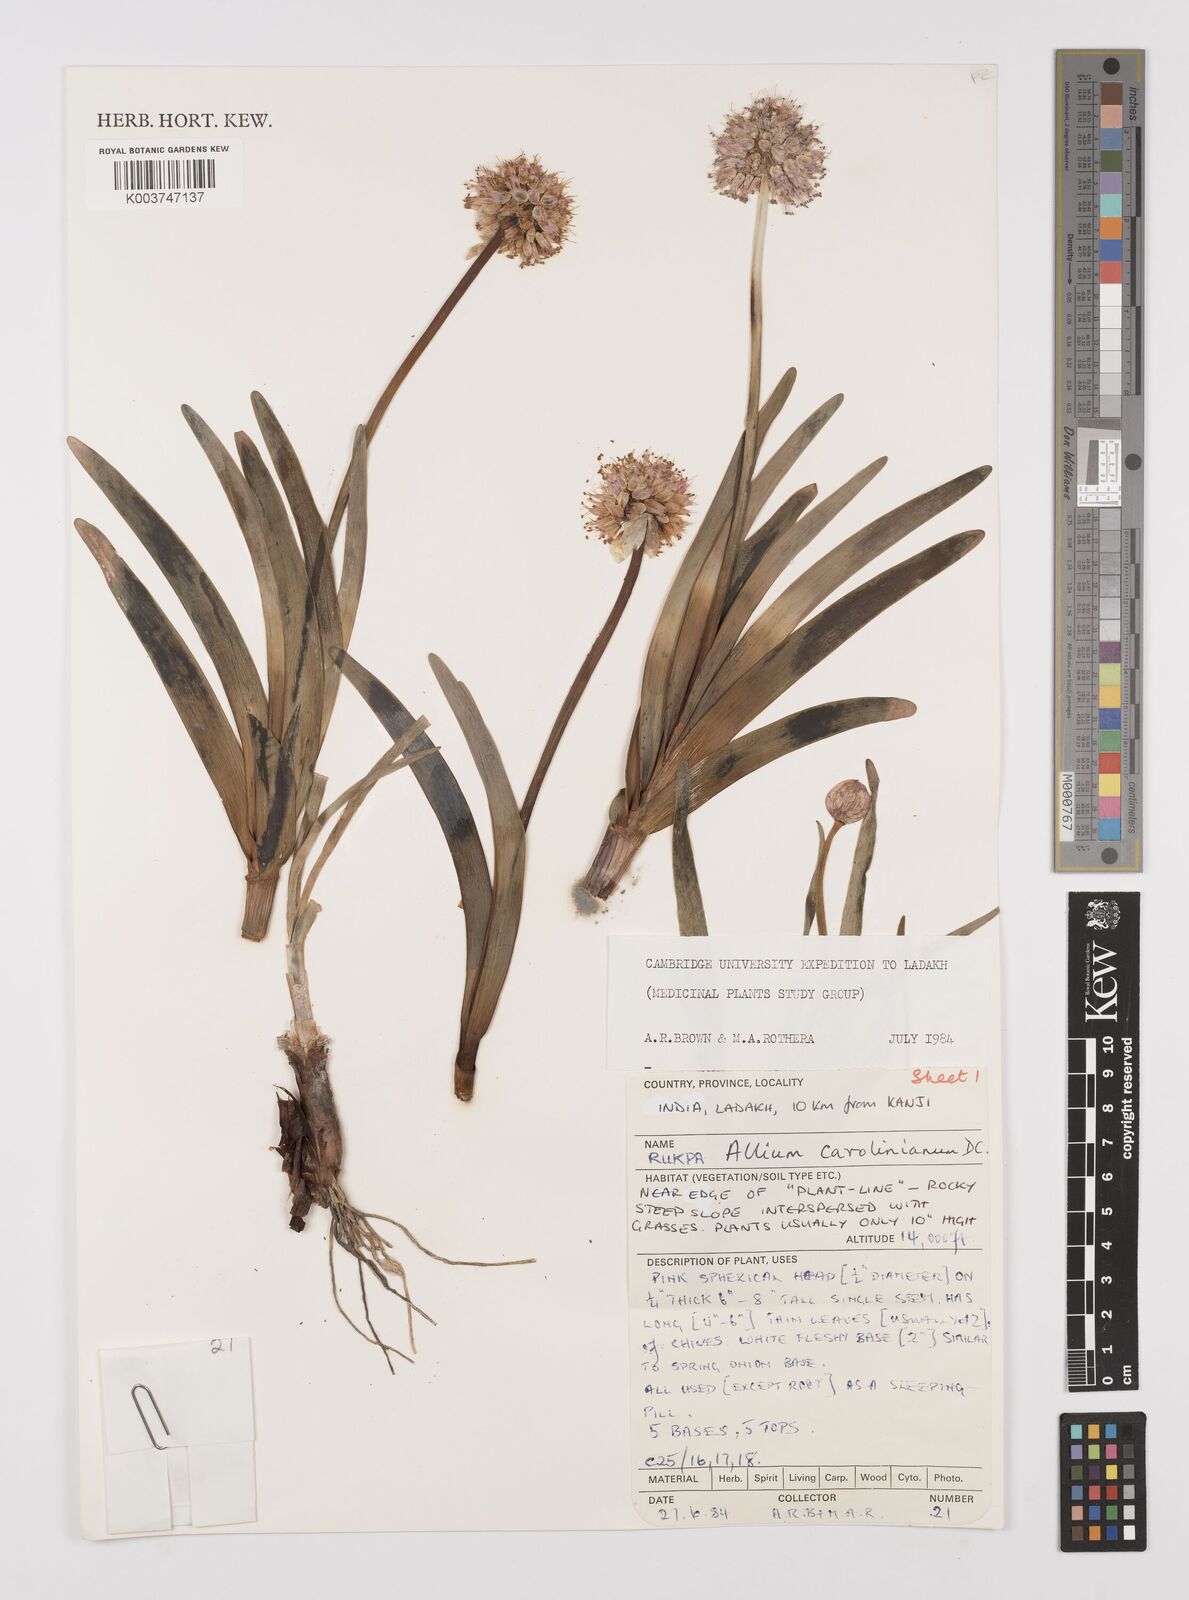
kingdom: Plantae
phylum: Tracheophyta
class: Liliopsida
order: Asparagales
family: Amaryllidaceae
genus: Allium
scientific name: Allium carolinianum
